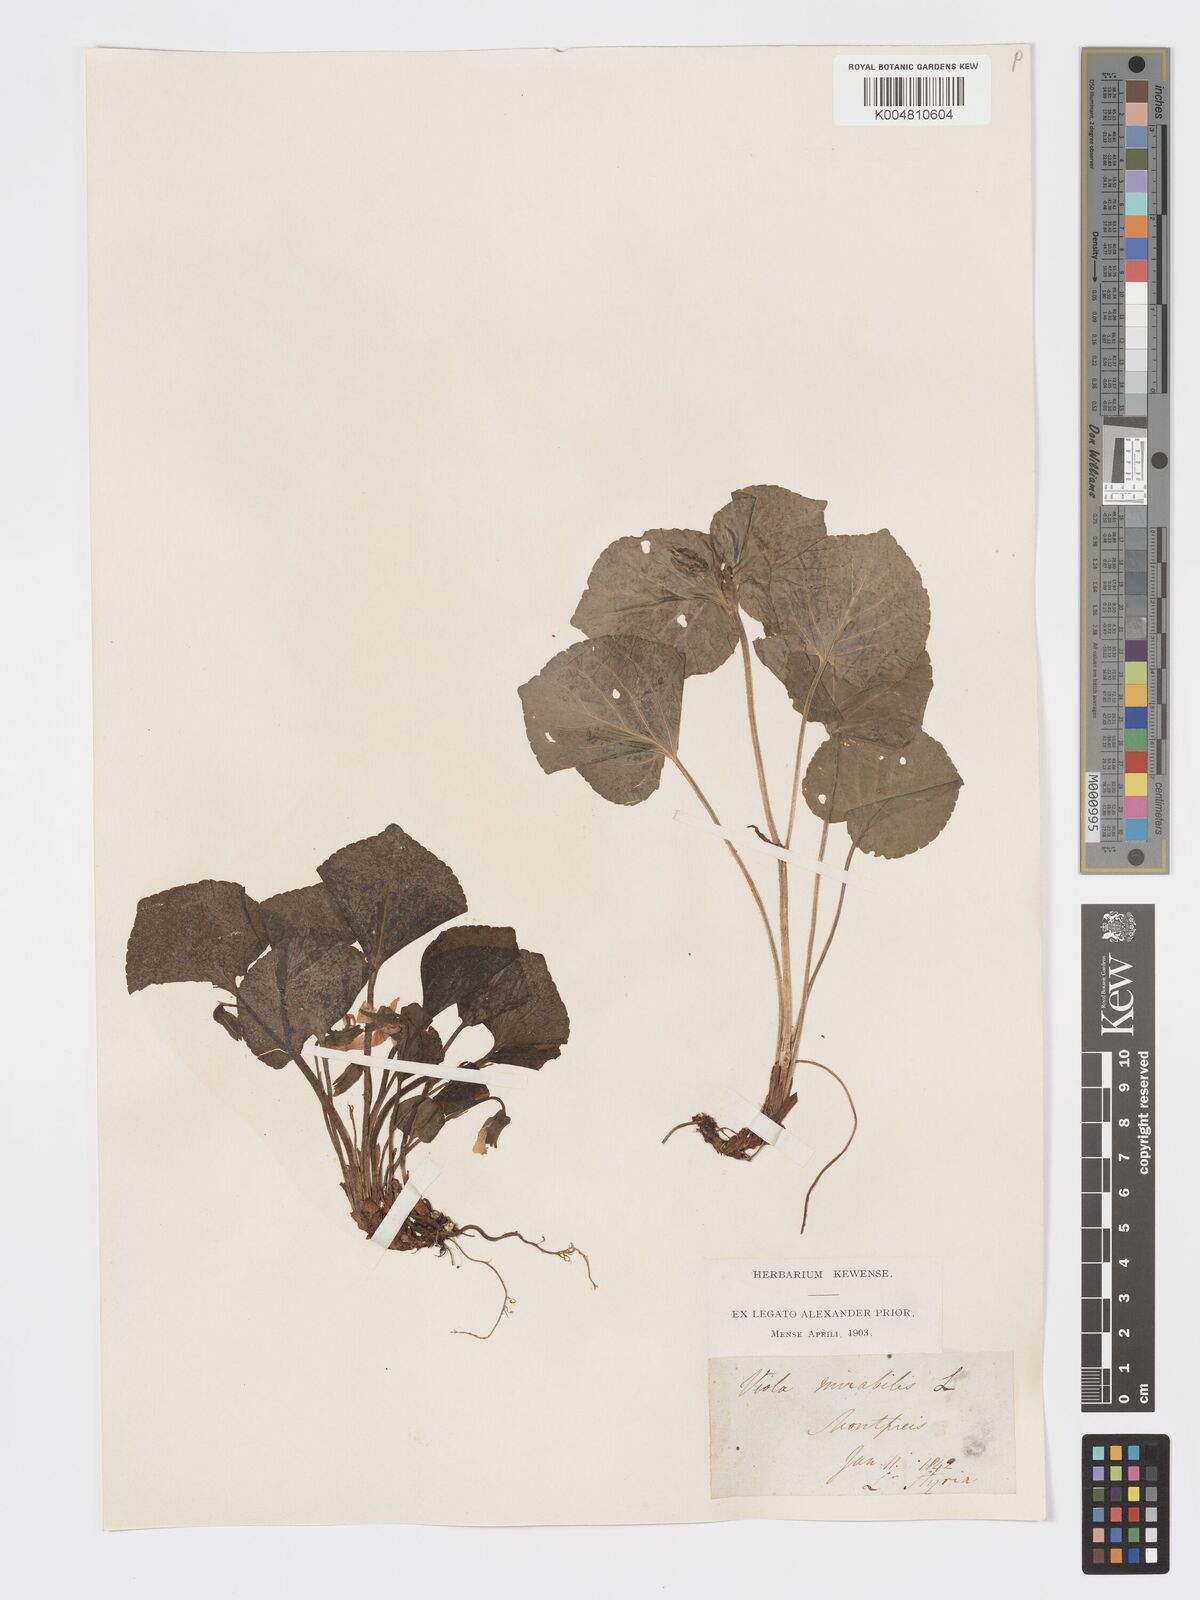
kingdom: Plantae
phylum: Tracheophyta
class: Magnoliopsida
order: Malpighiales
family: Violaceae
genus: Viola
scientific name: Viola mirabilis
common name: Wonder violet
